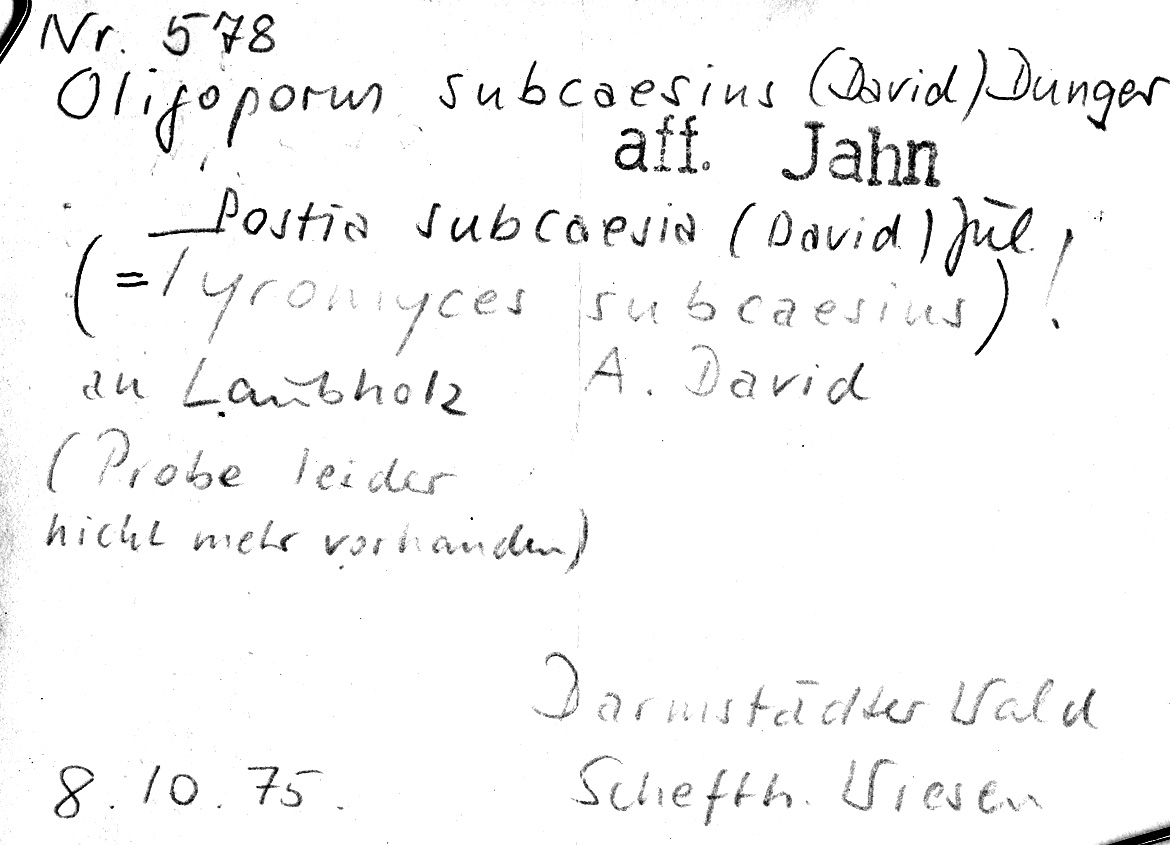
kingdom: Fungi
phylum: Basidiomycota
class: Agaricomycetes
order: Polyporales
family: Polyporaceae
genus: Cyanosporus
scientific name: Cyanosporus subcaesius
